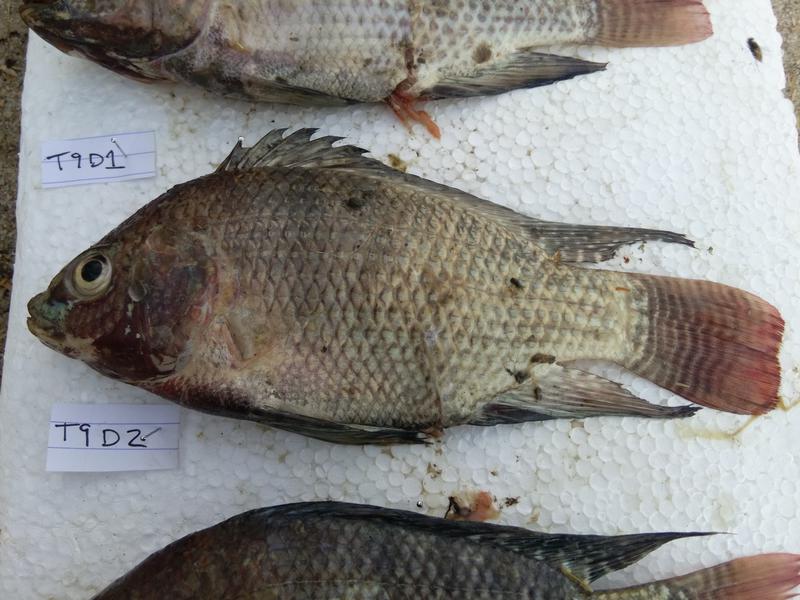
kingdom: Animalia
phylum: Chordata
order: Perciformes
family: Cichlidae
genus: Oreochromis
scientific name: Oreochromis niloticus
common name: Nile tilapia
